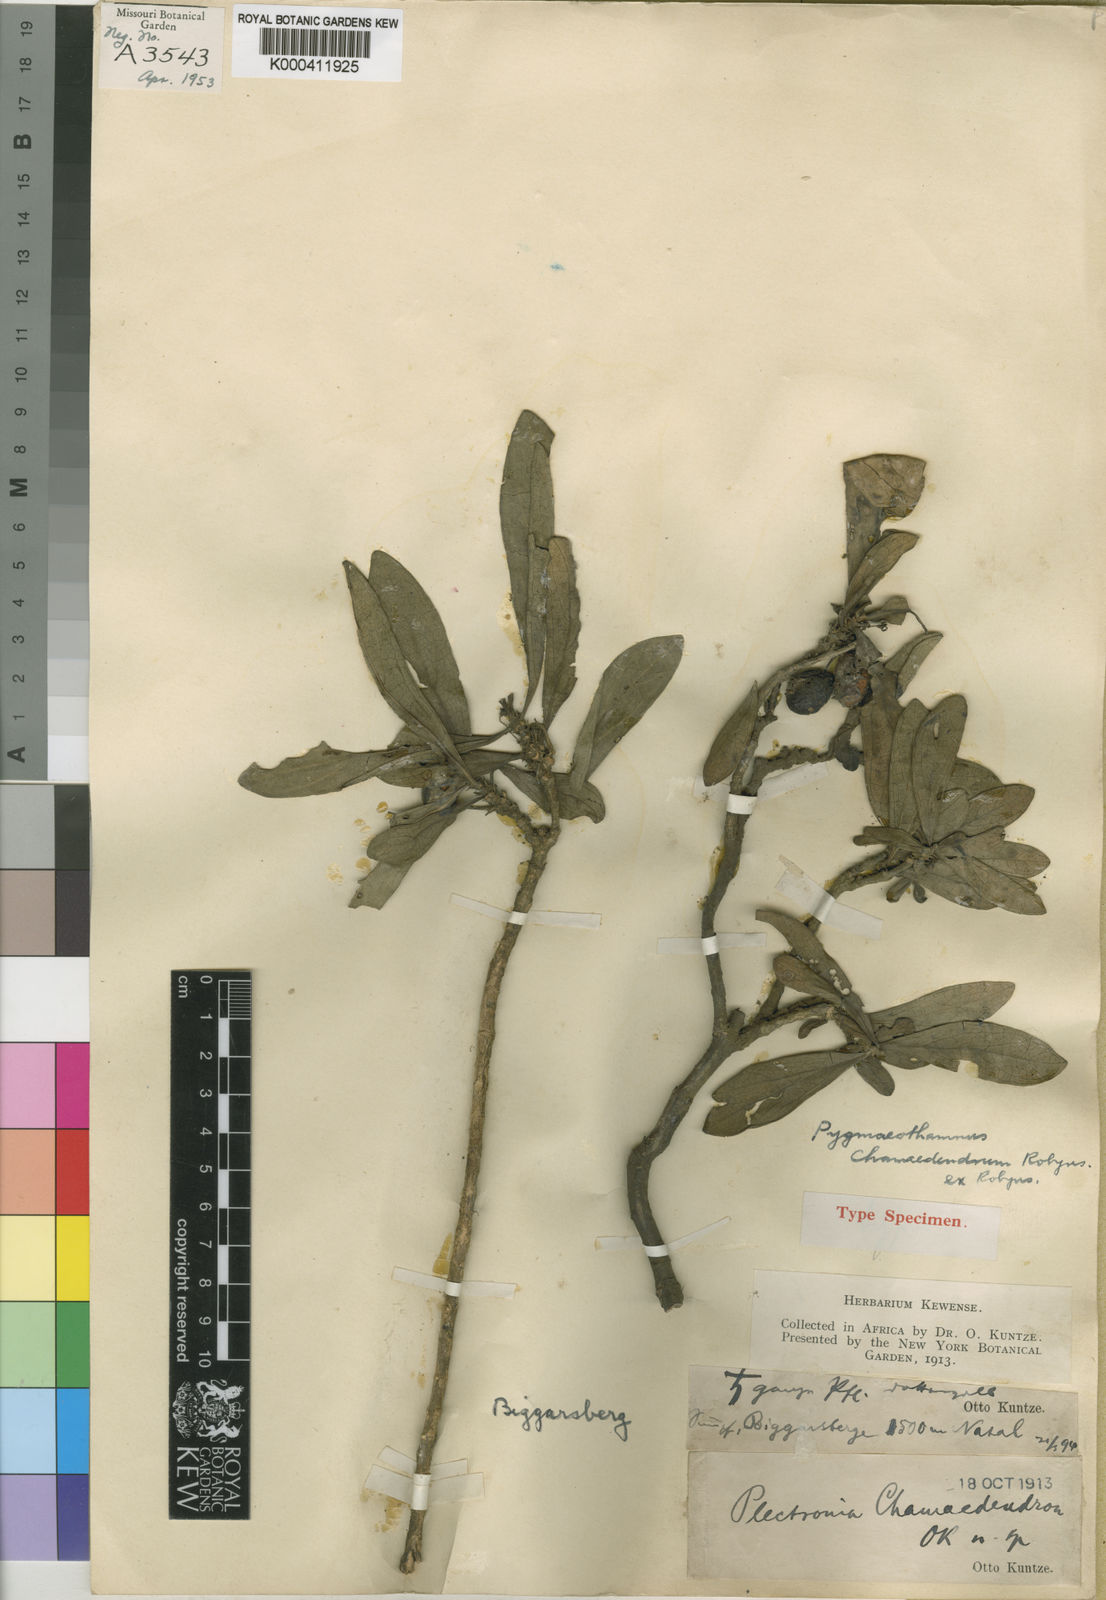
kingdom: Plantae
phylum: Tracheophyta
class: Magnoliopsida
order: Gentianales
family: Rubiaceae
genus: Bridsonia
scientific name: Bridsonia chamaedendrum
